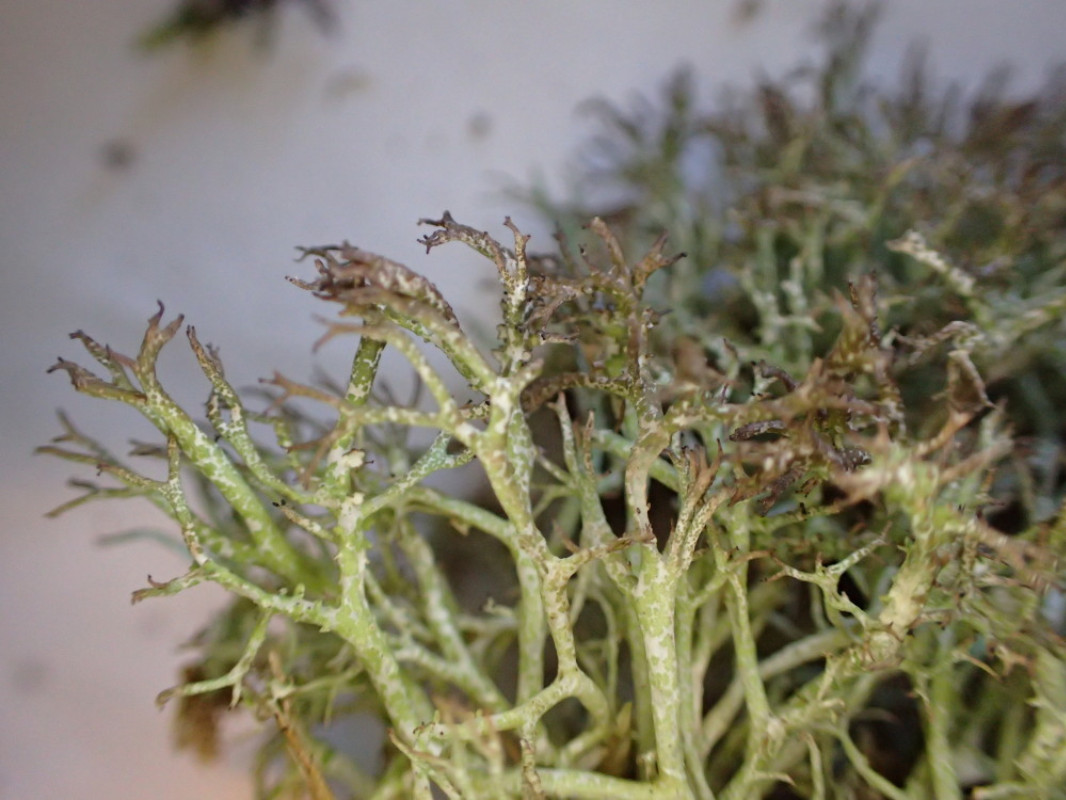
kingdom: Fungi
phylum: Ascomycota
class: Lecanoromycetes
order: Lecanorales
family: Cladoniaceae
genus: Cladonia
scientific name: Cladonia rangiformis
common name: spættet bægerlav
